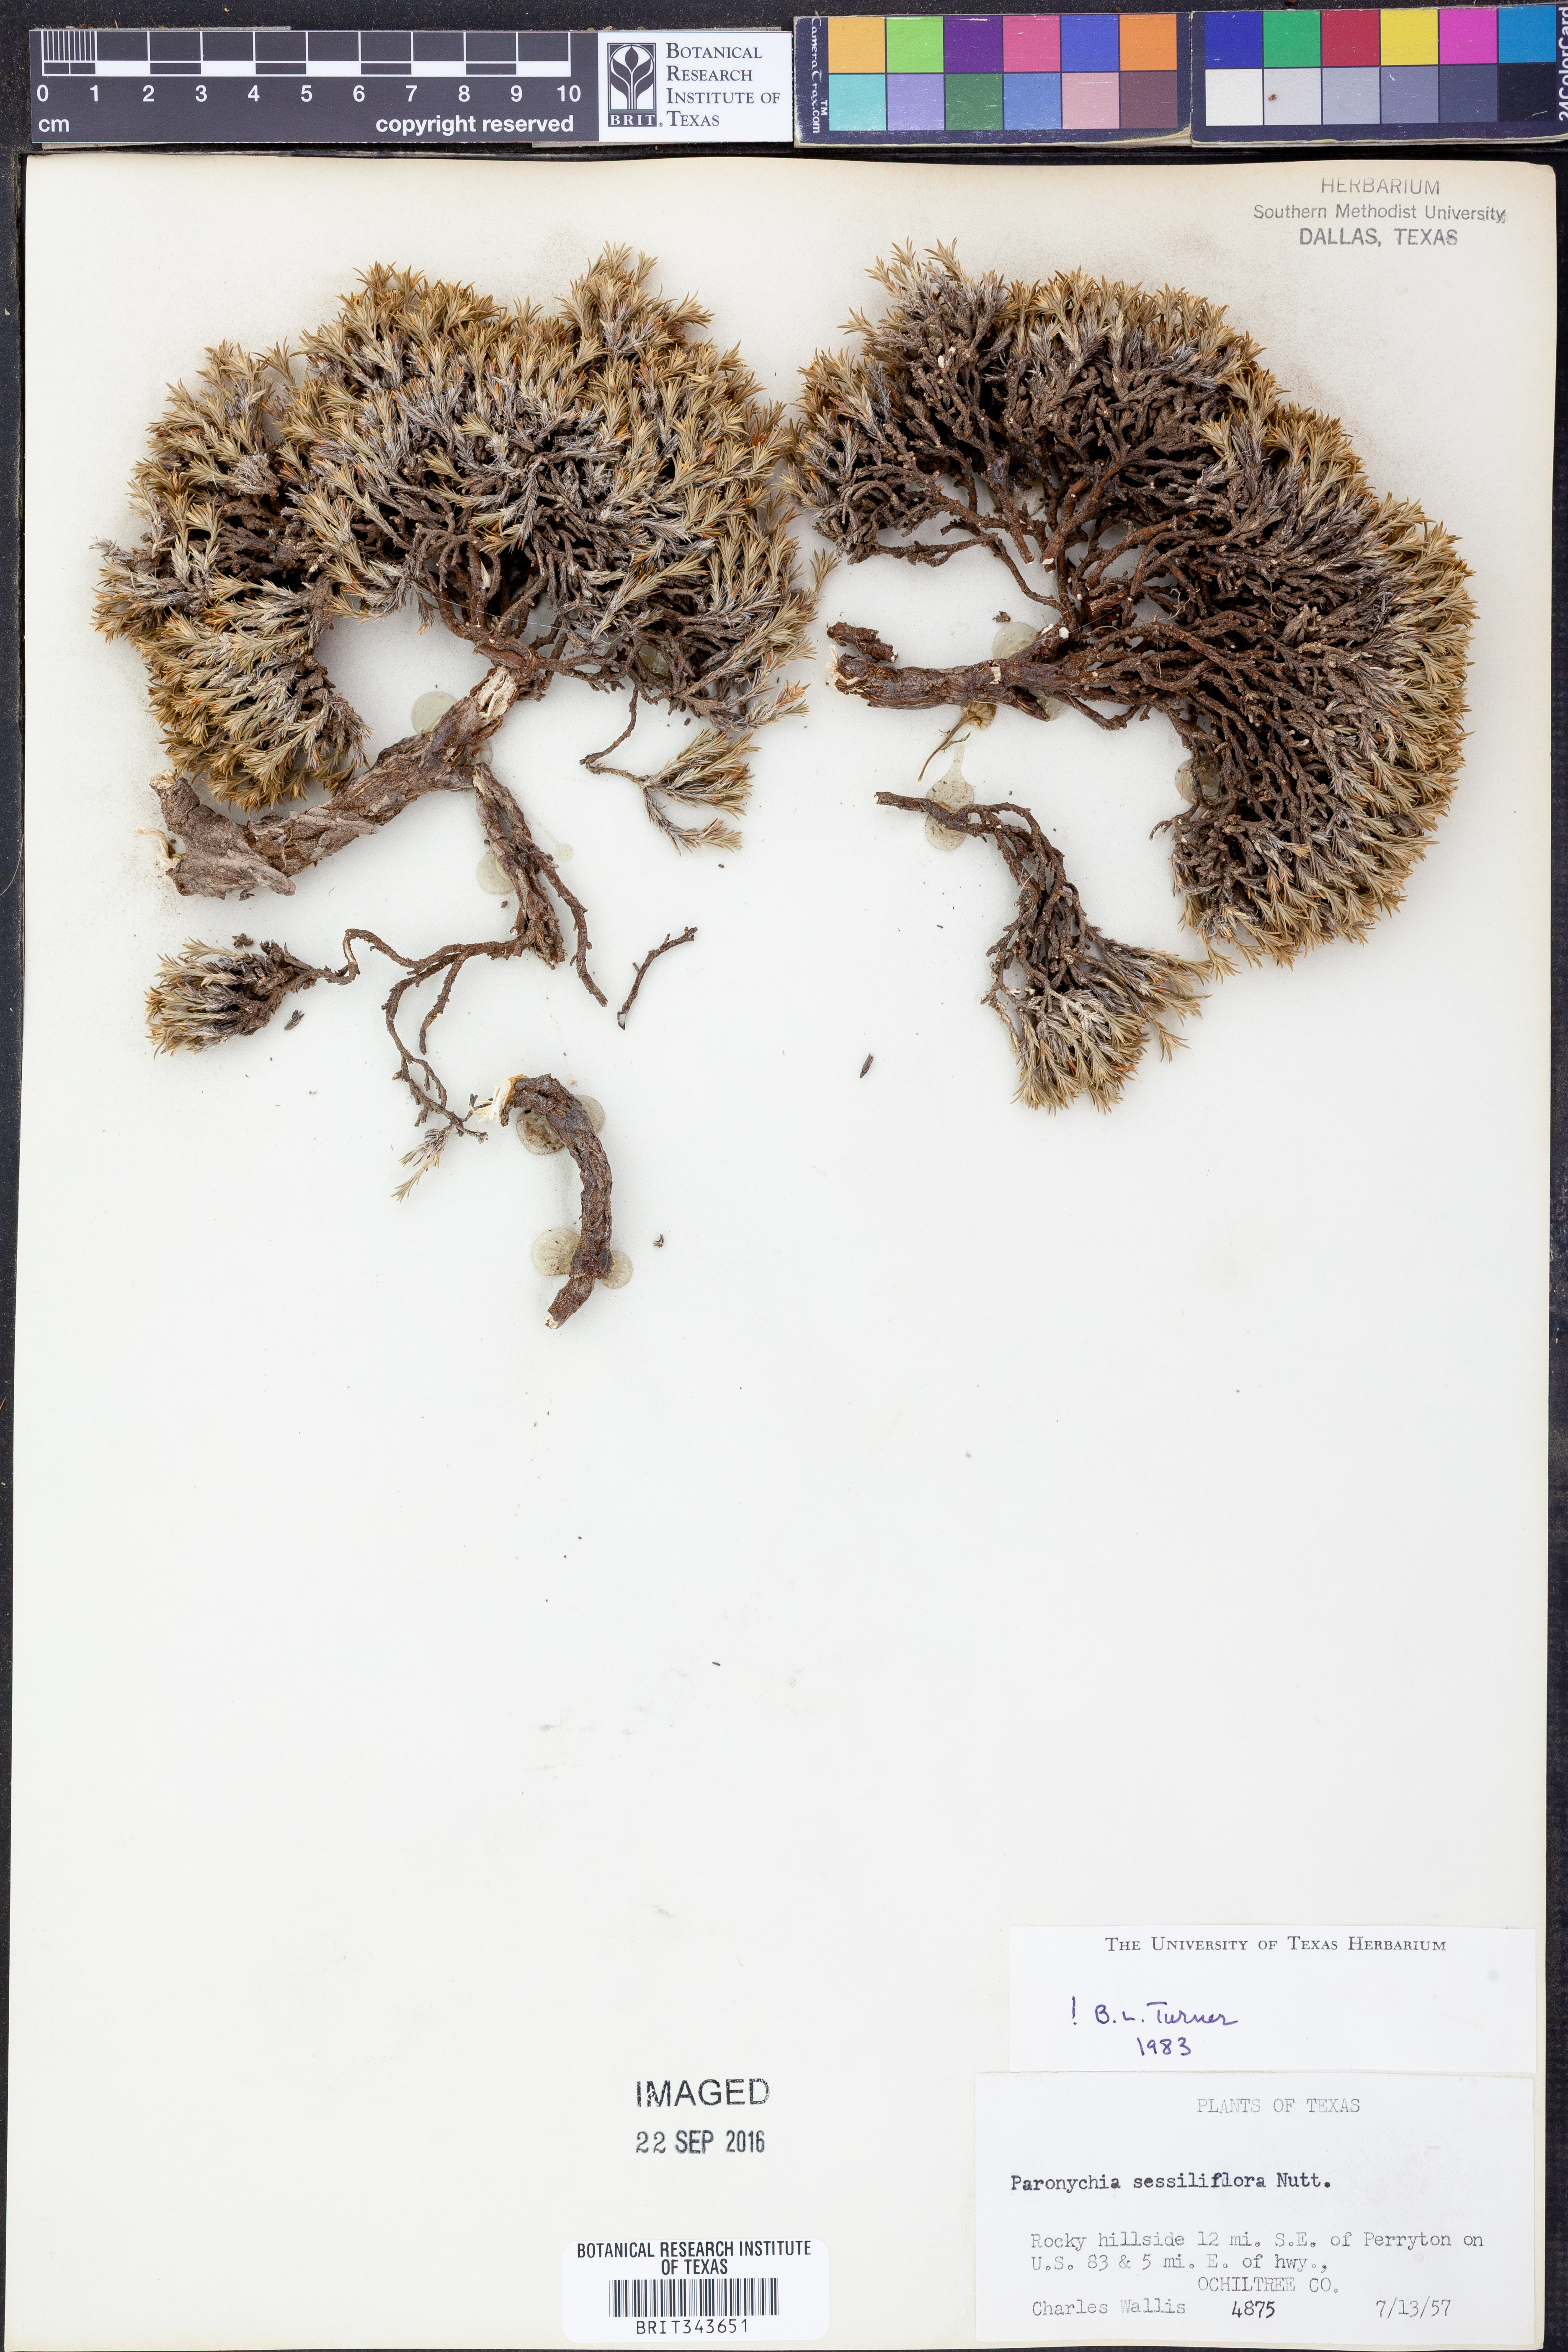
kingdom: Plantae
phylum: Tracheophyta
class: Magnoliopsida
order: Caryophyllales
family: Caryophyllaceae
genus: Paronychia
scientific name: Paronychia sessiliflora
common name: Creeping nailwort
